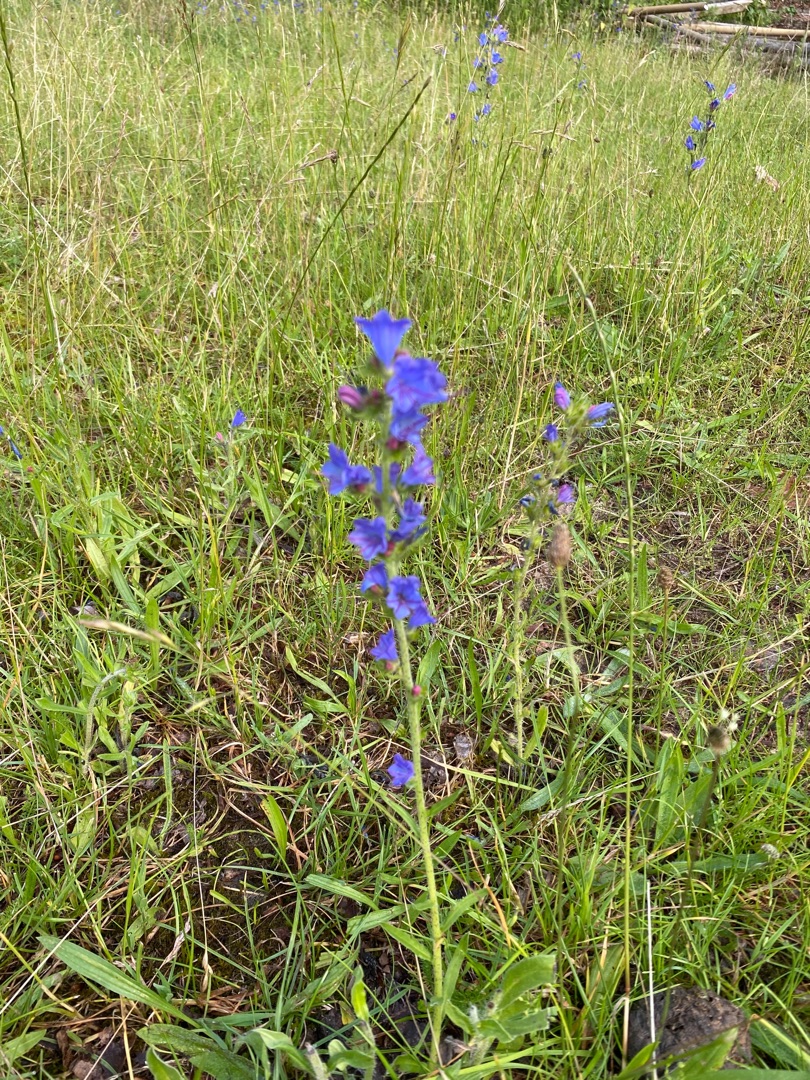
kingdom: Plantae
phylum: Tracheophyta
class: Magnoliopsida
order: Boraginales
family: Boraginaceae
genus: Echium
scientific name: Echium vulgare
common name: Slangehoved
